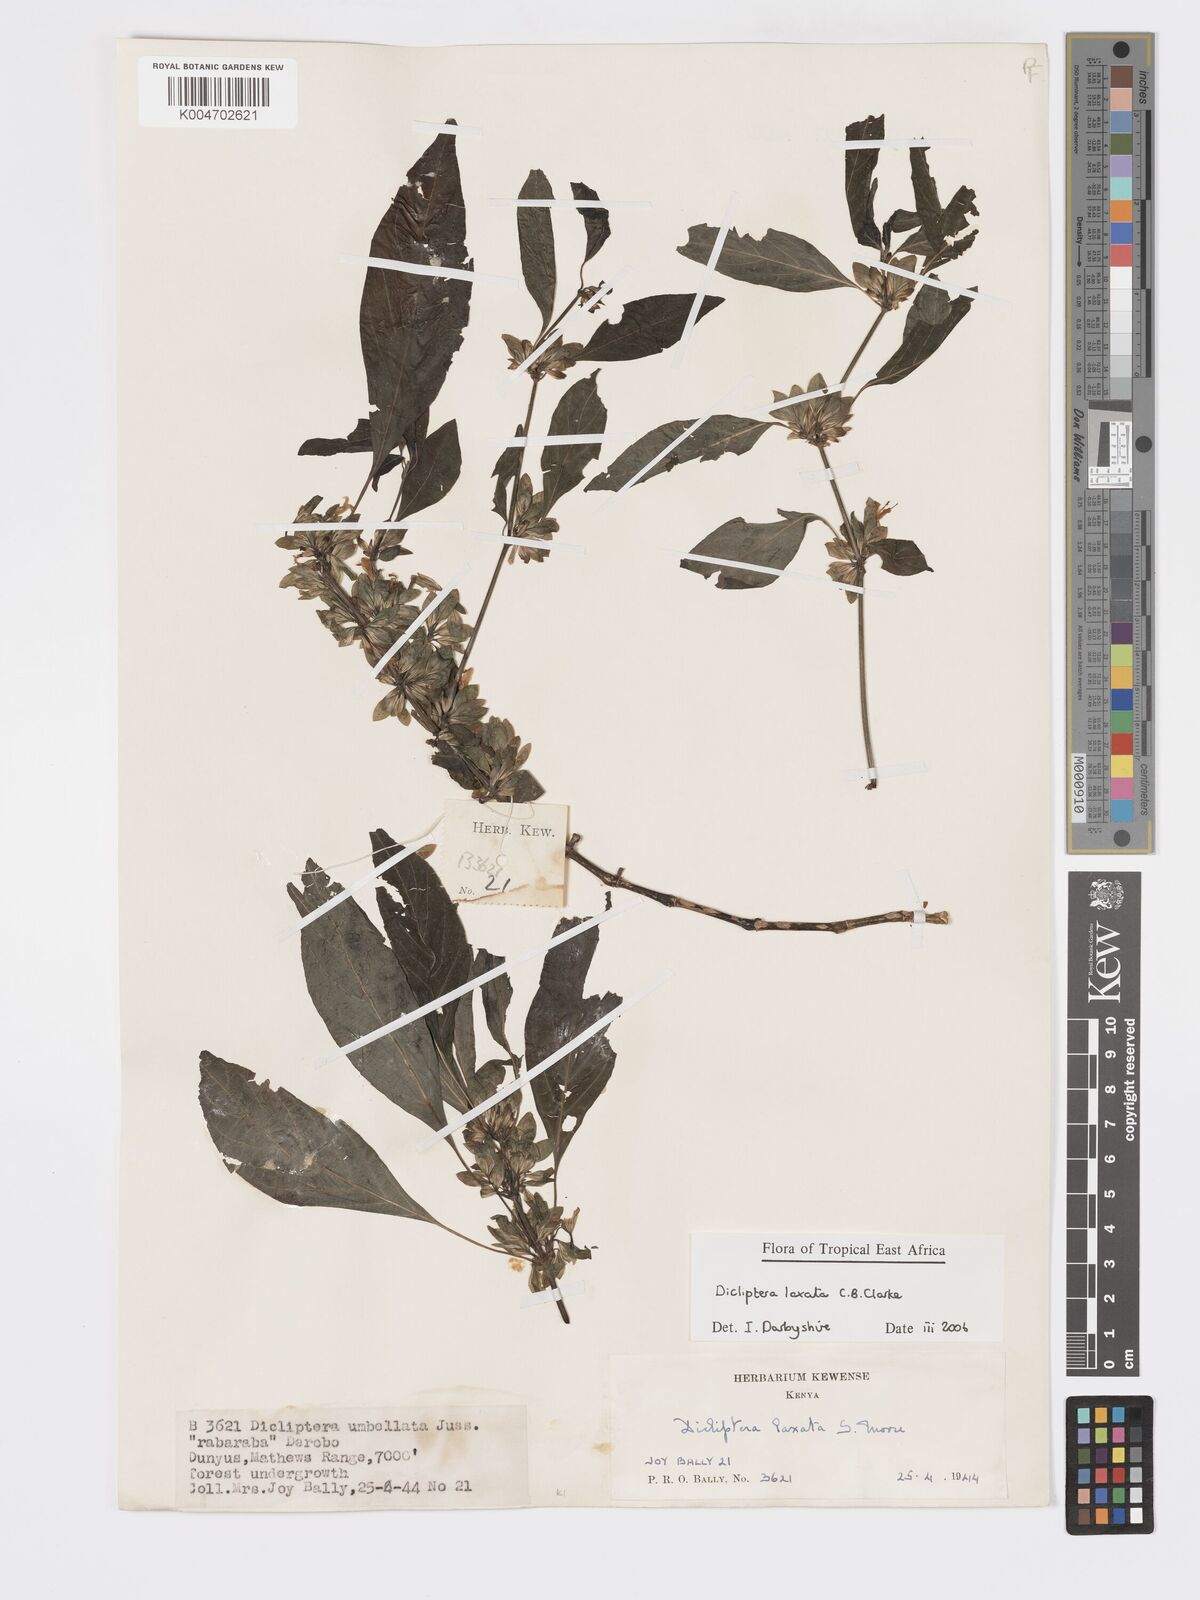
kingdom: Plantae
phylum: Tracheophyta
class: Magnoliopsida
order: Lamiales
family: Acanthaceae
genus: Dicliptera
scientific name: Dicliptera laxata
